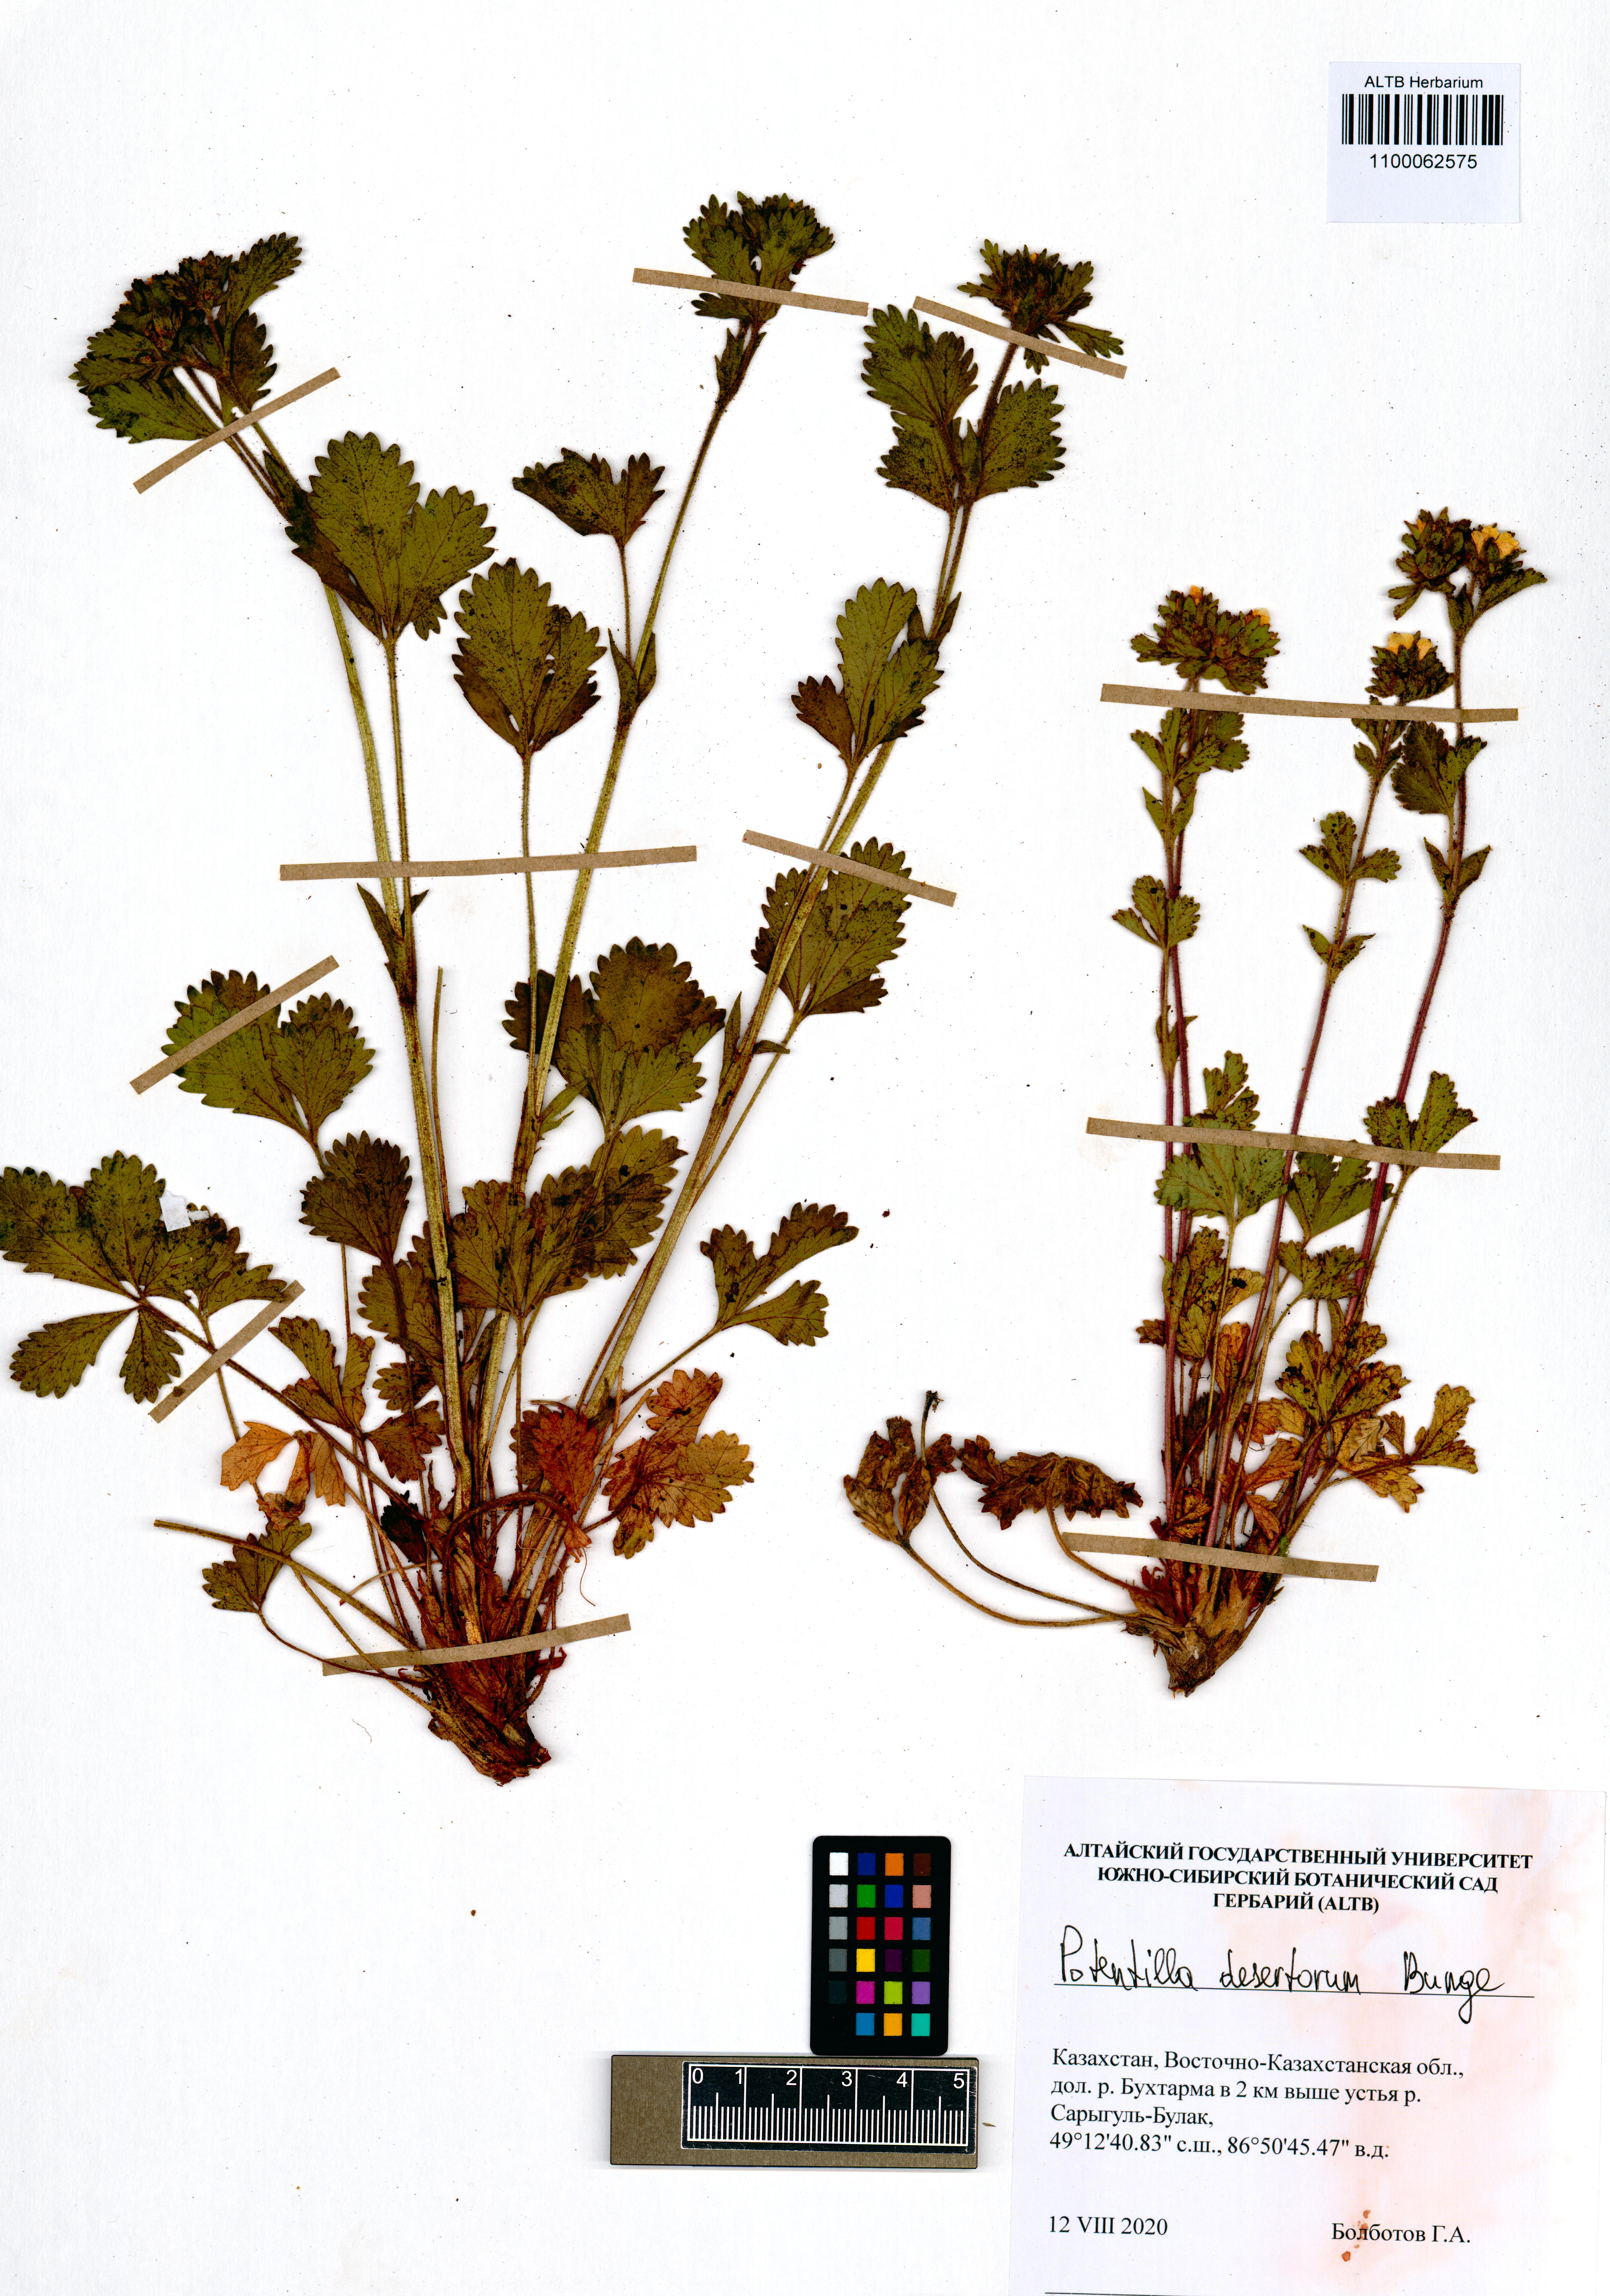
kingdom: Plantae
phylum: Tracheophyta
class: Magnoliopsida
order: Rosales
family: Rosaceae
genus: Potentilla
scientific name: Potentilla desertorum
